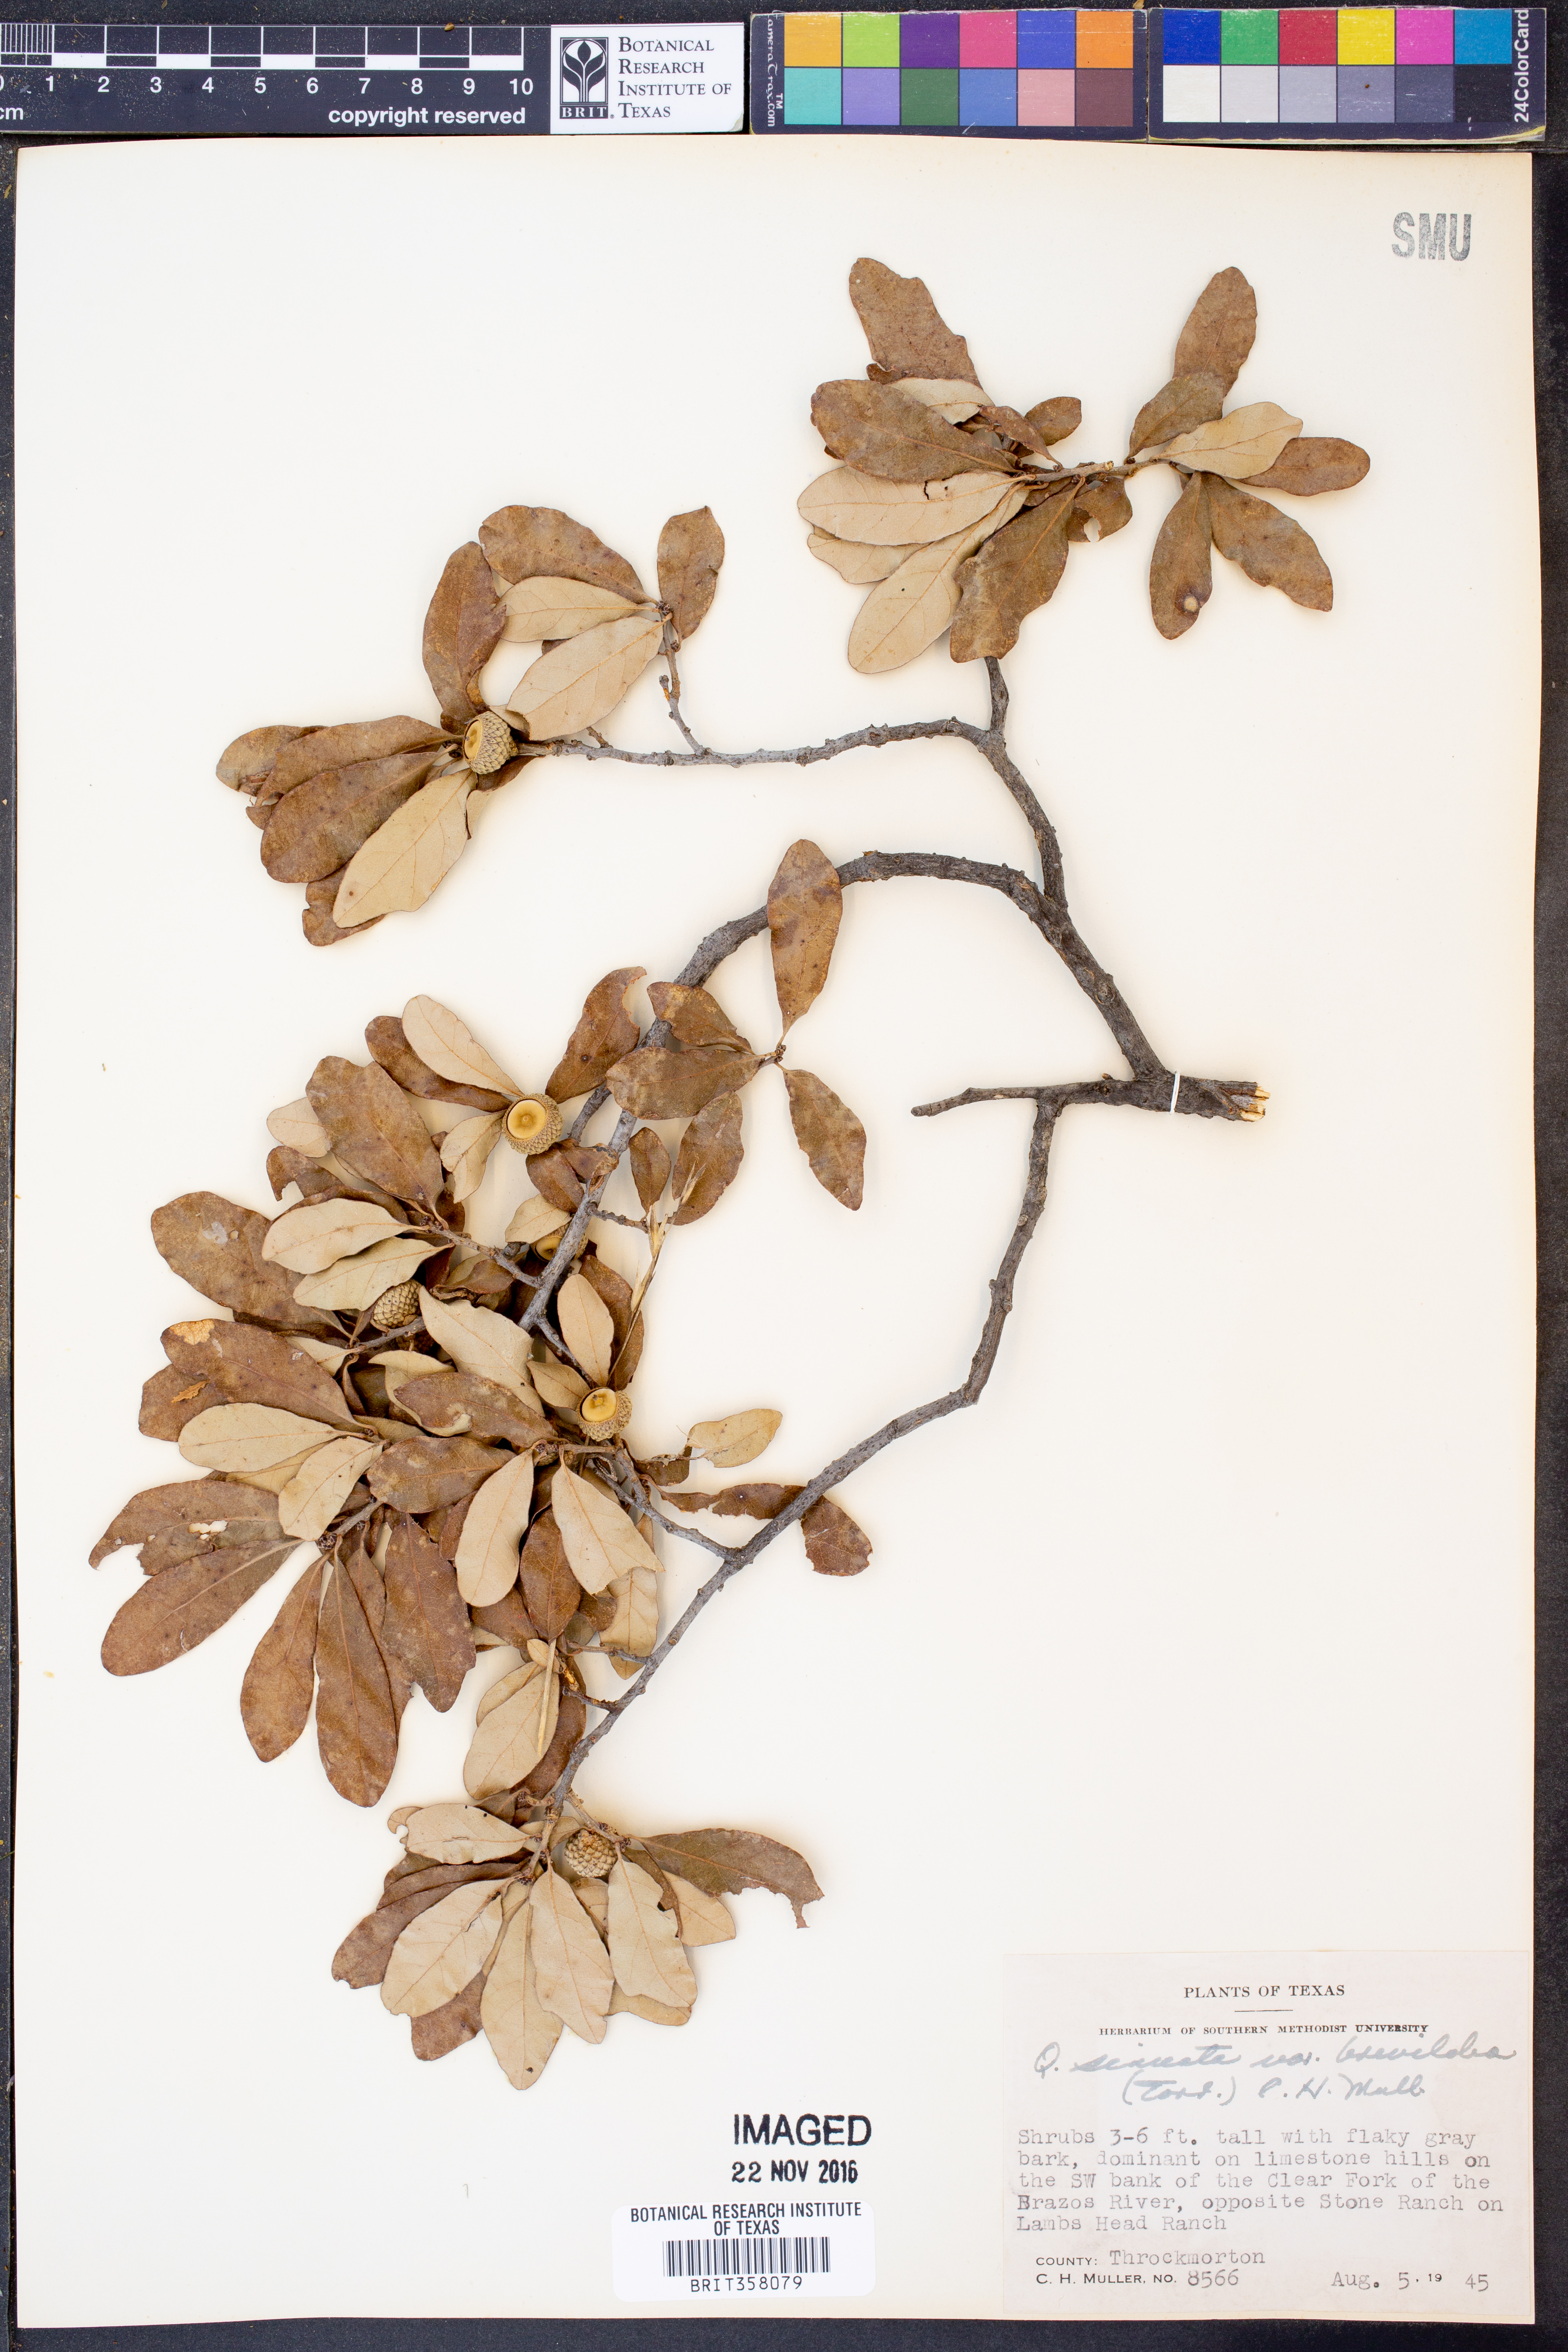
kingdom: Plantae
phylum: Tracheophyta
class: Magnoliopsida
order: Fagales
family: Fagaceae
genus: Quercus
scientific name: Quercus sinuata
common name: Durand oak
